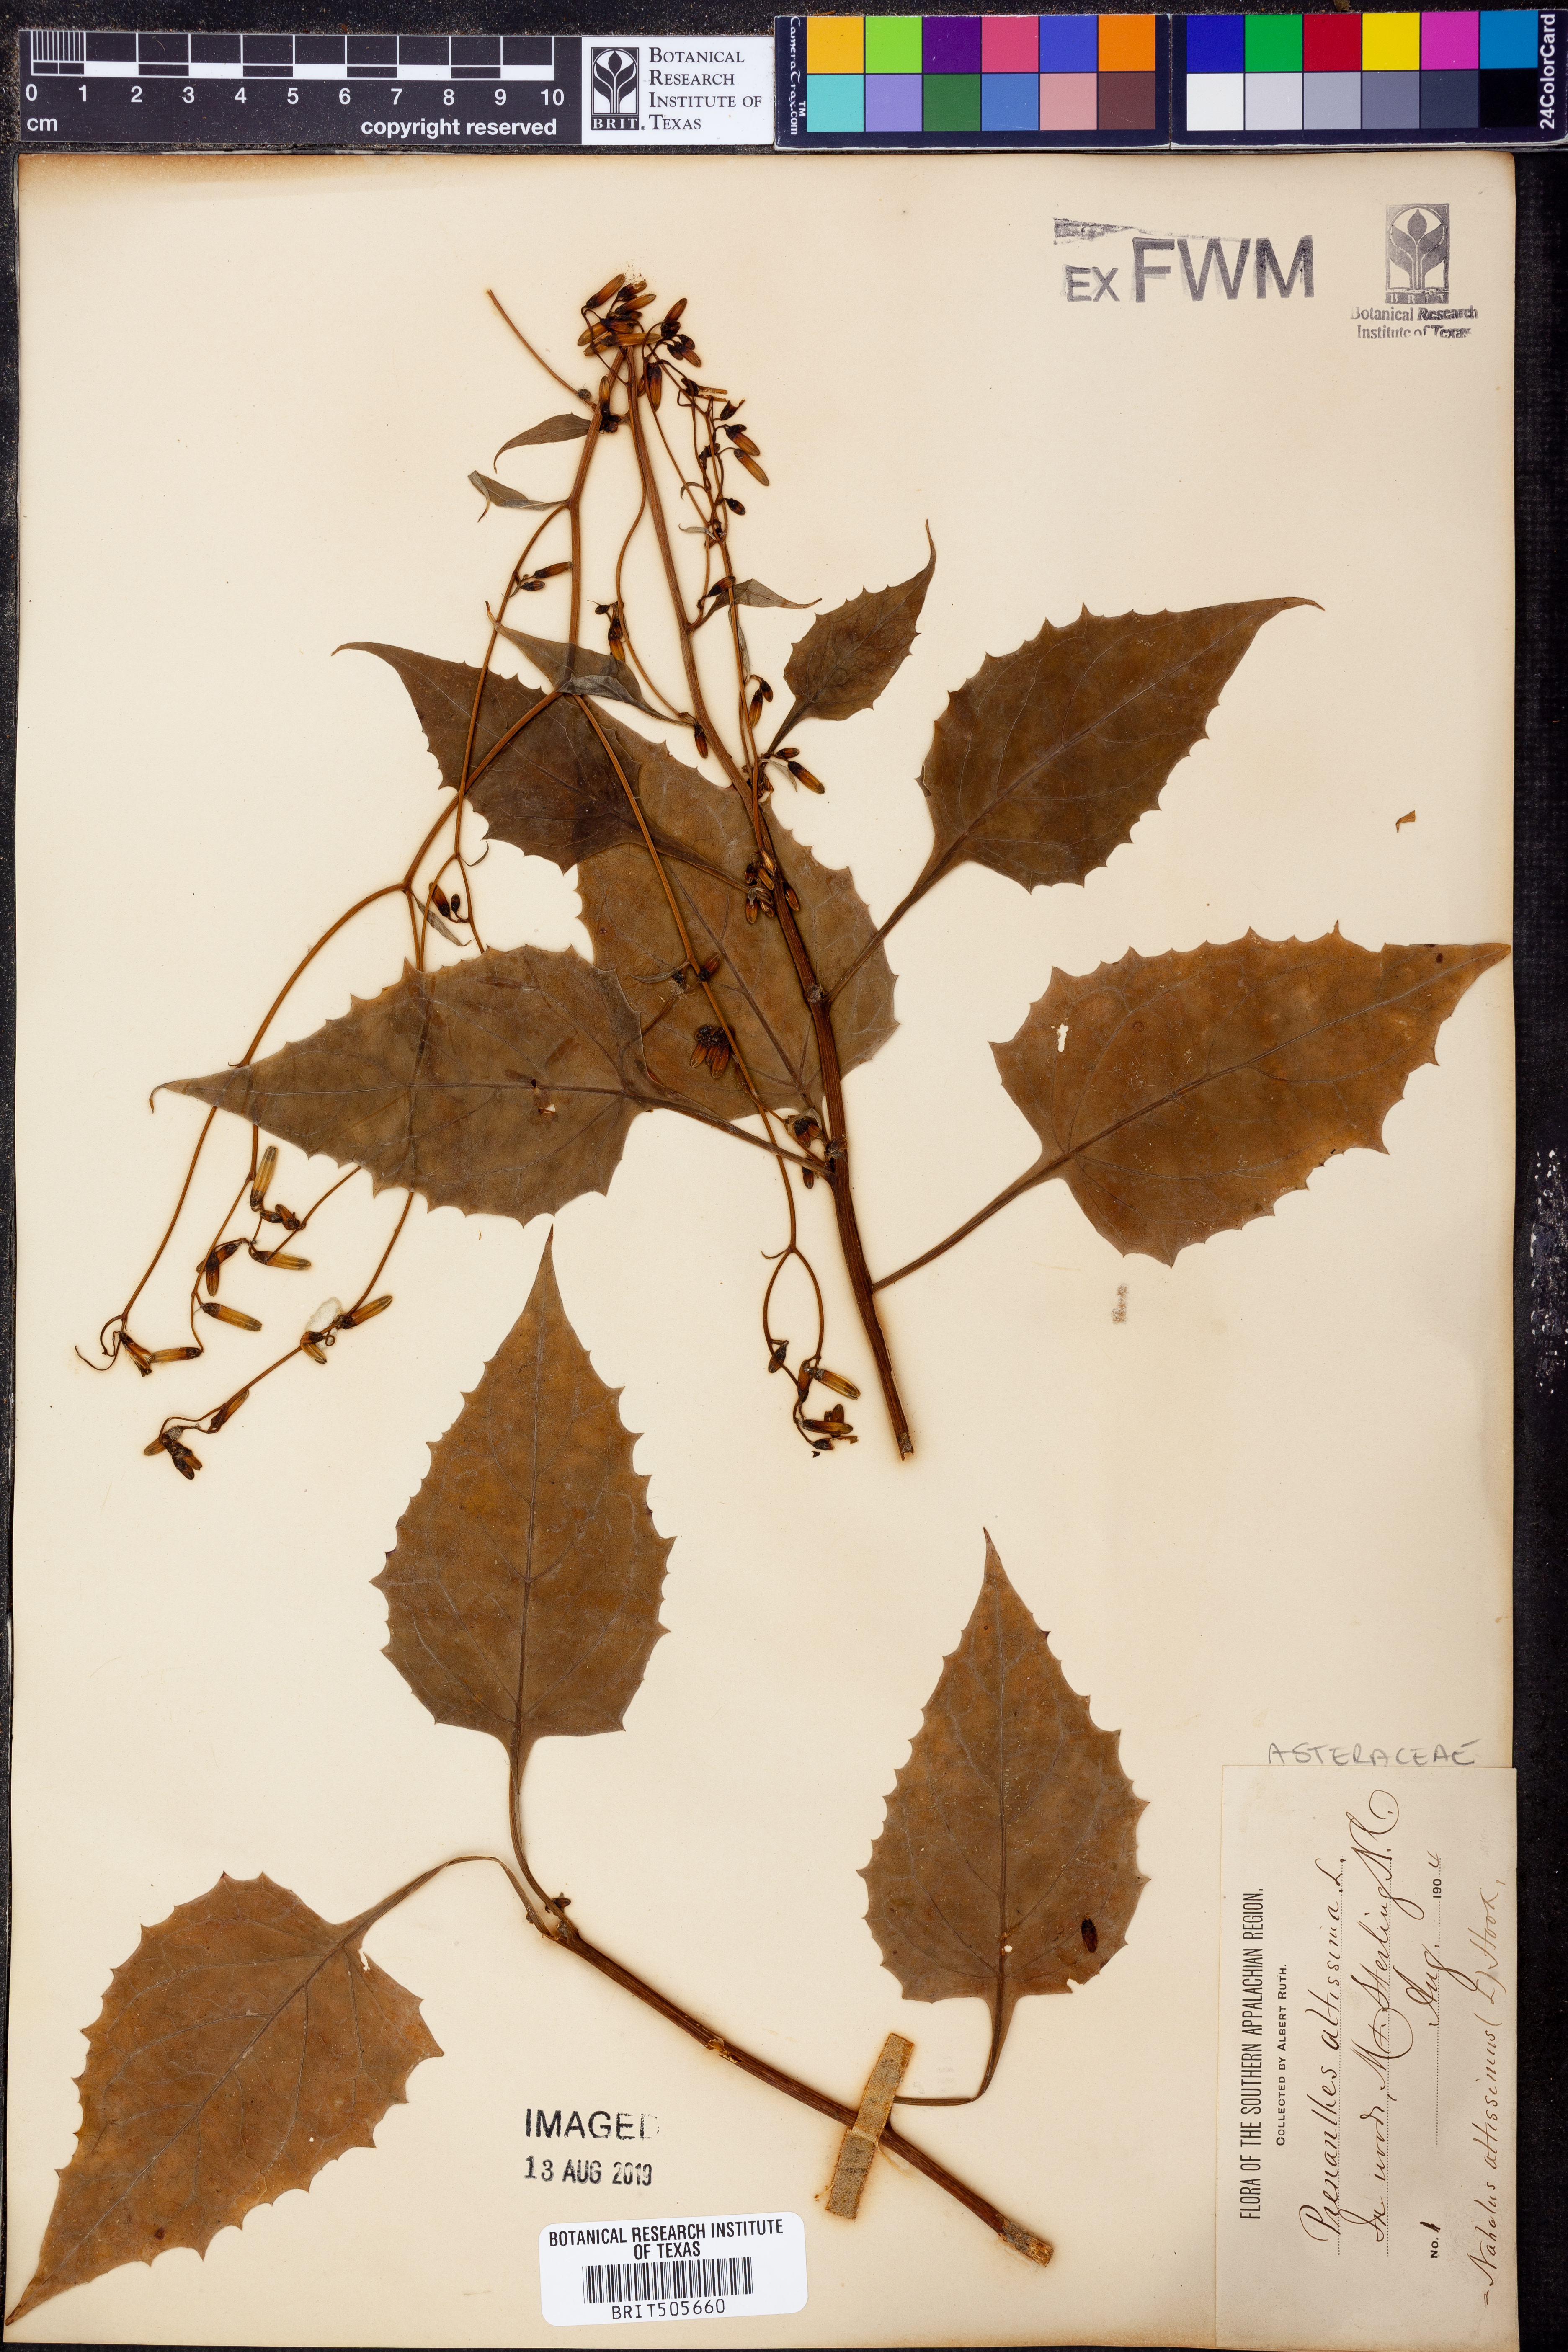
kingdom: Plantae
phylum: Tracheophyta
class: Magnoliopsida
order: Asterales
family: Asteraceae
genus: Lactuca
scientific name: Lactuca quercina
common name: Wild lettuce
